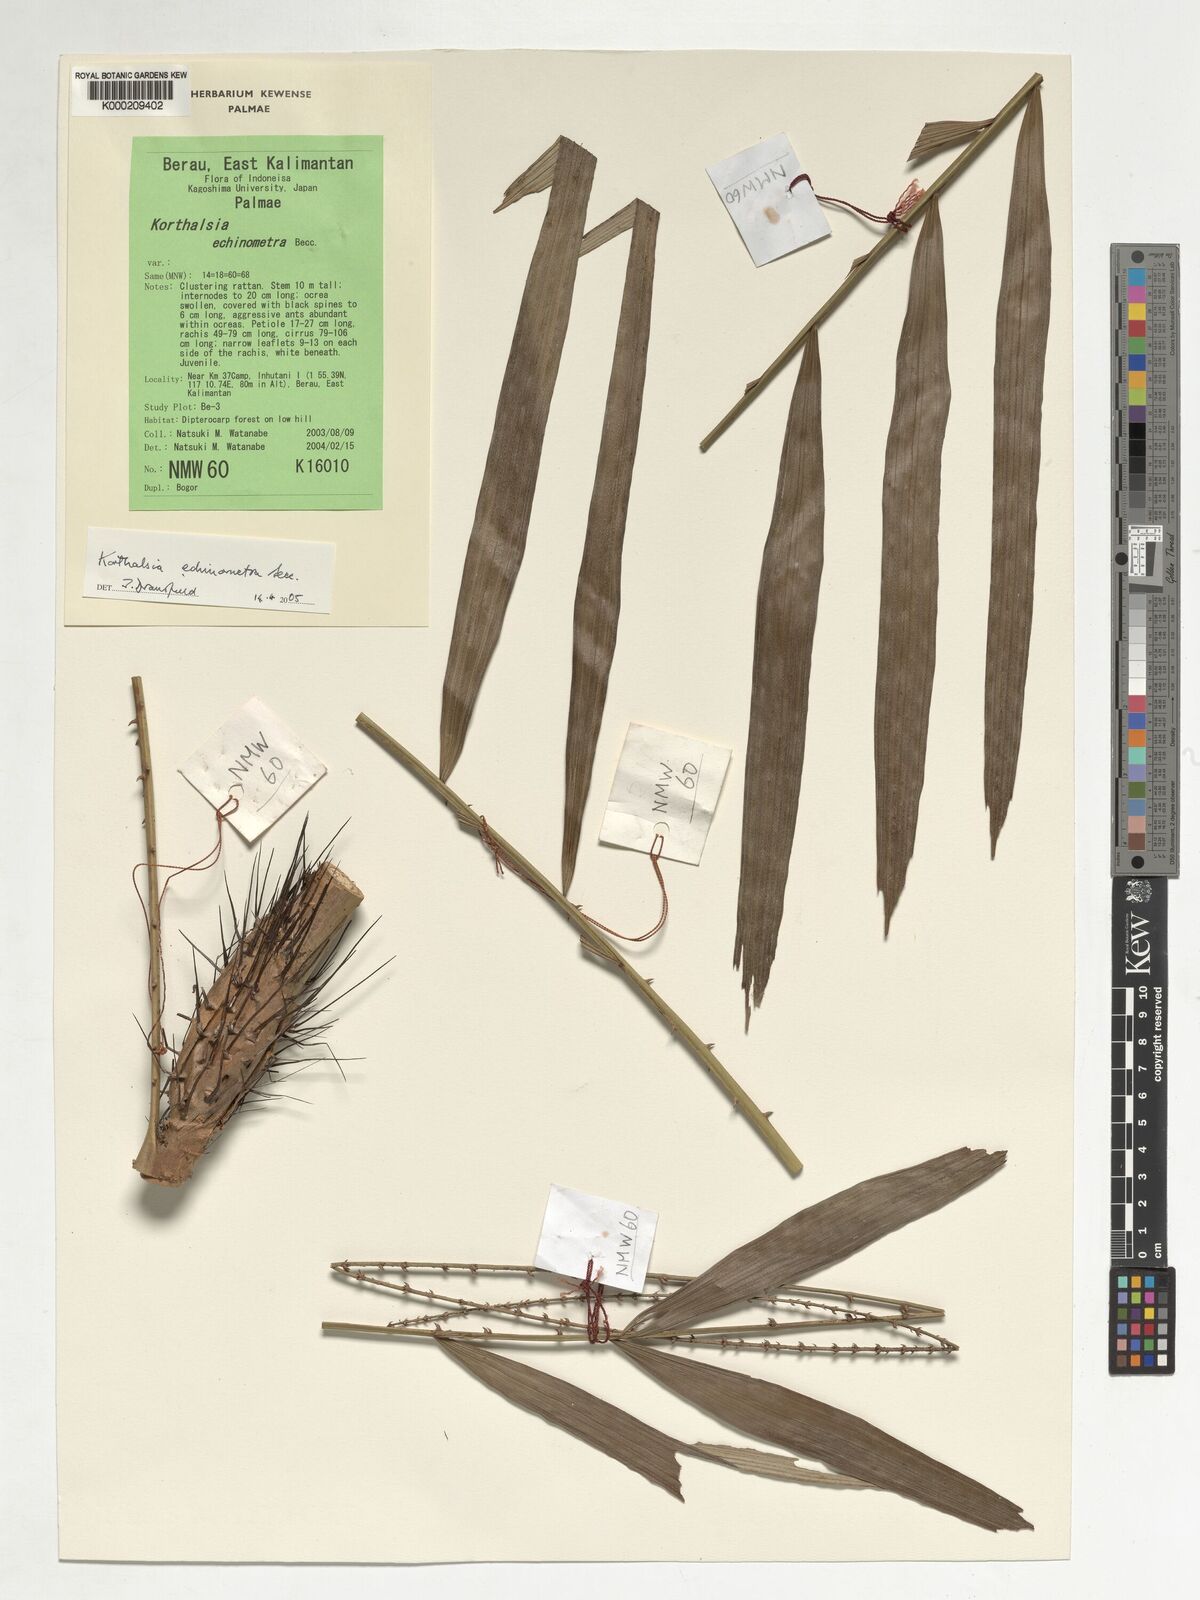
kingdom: Plantae
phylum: Tracheophyta
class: Liliopsida
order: Arecales
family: Arecaceae
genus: Korthalsia
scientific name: Korthalsia echinometra
